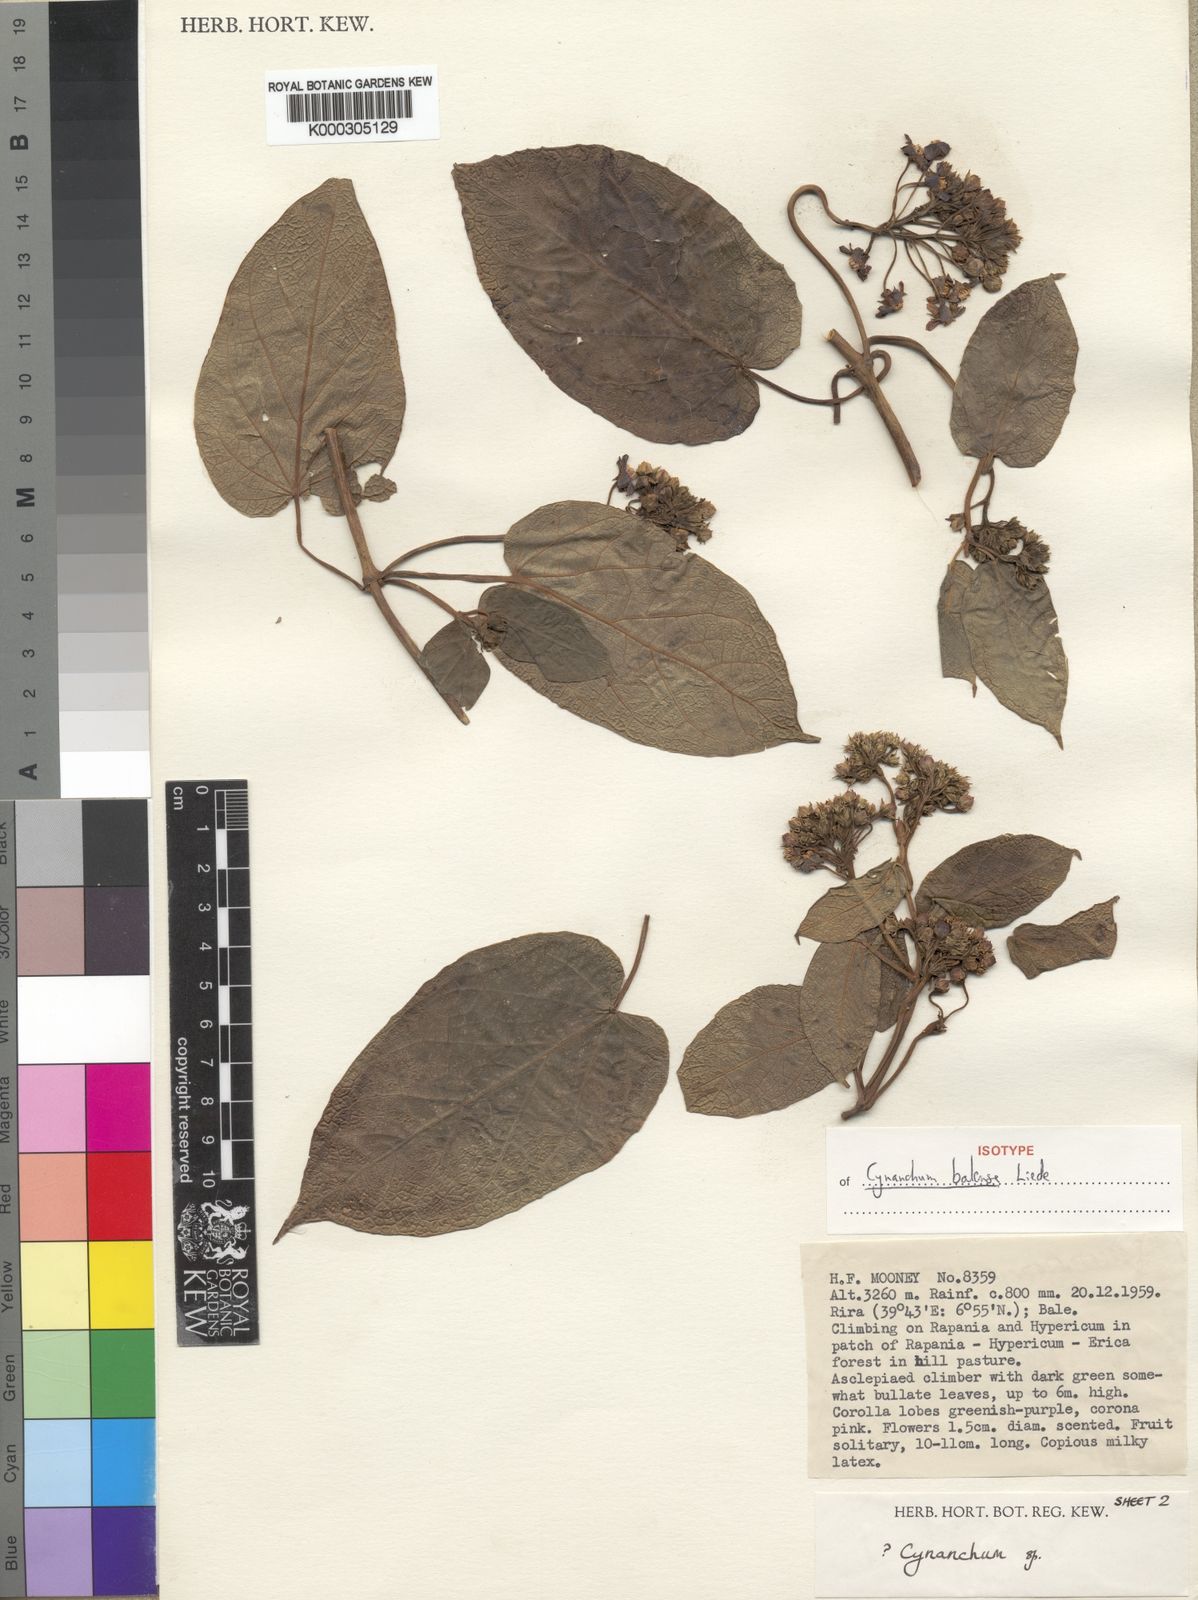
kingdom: Plantae
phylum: Tracheophyta
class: Magnoliopsida
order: Gentianales
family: Apocynaceae
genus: Cynanchum
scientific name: Cynanchum balense
